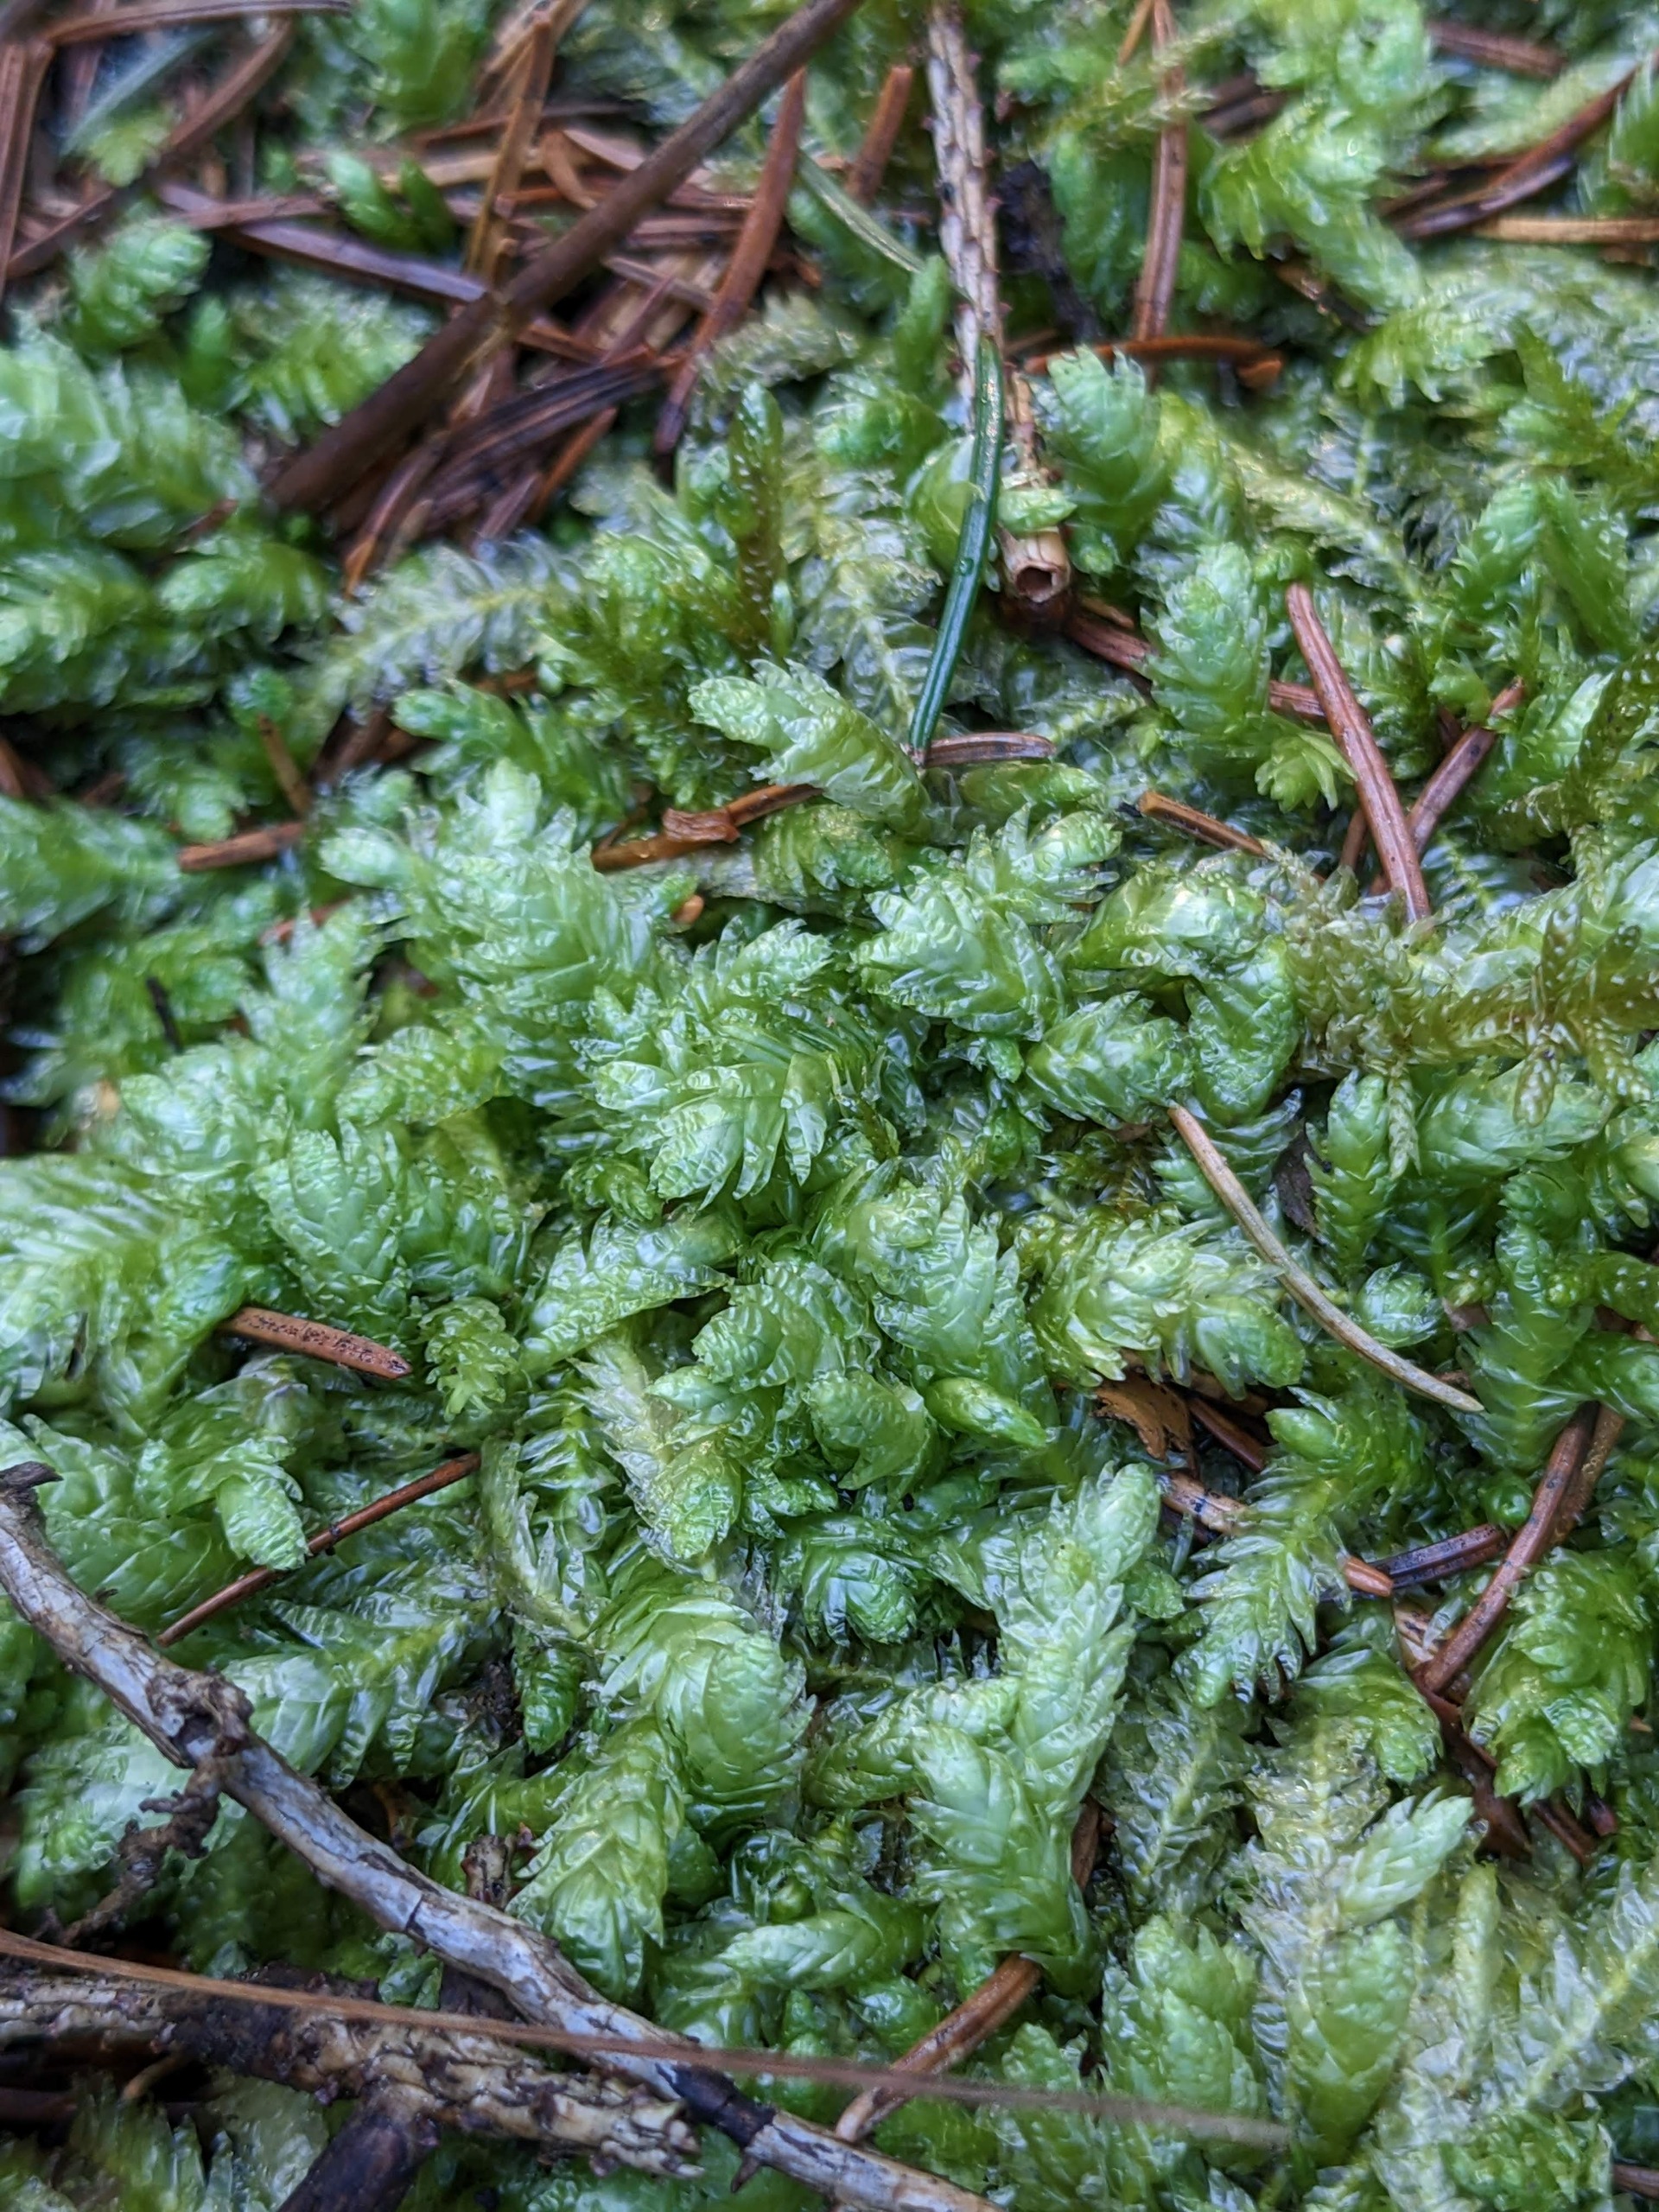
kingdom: Plantae
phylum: Bryophyta
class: Bryopsida
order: Hypnales
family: Plagiotheciaceae
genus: Plagiothecium
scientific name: Plagiothecium undulatum
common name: Bølget tæppemos
